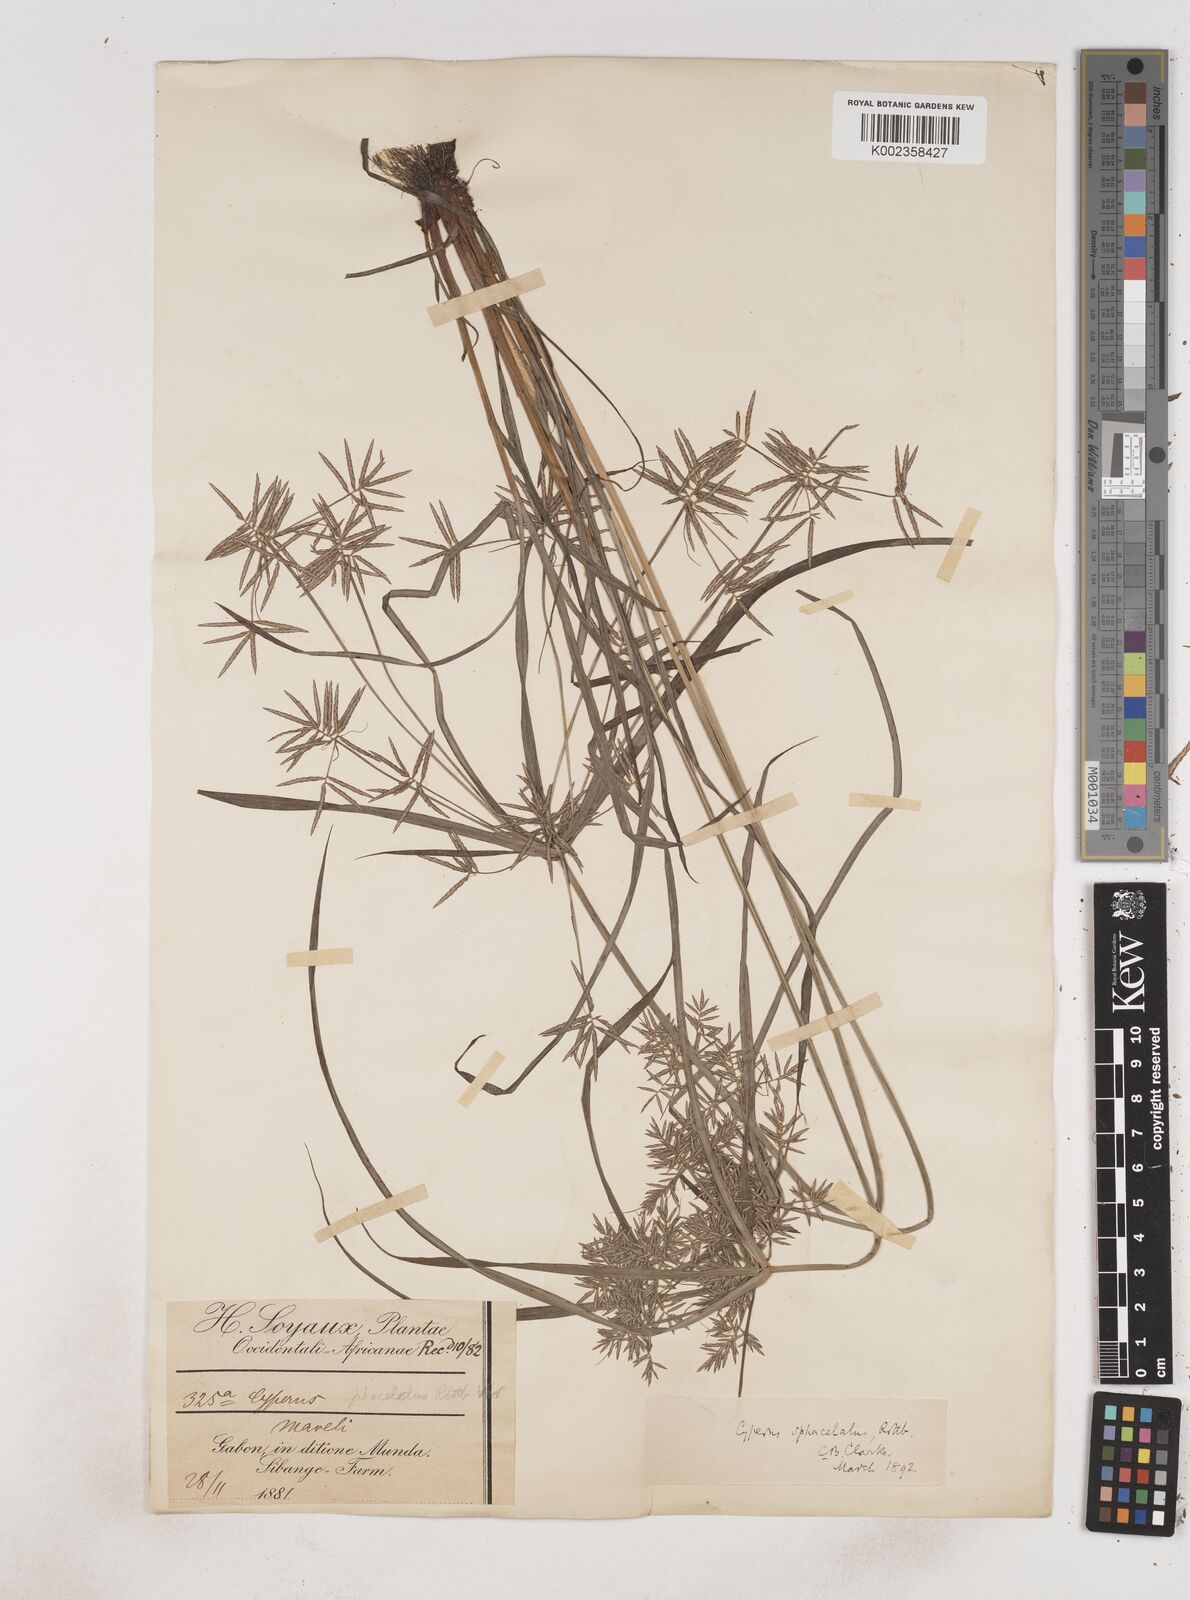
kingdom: Plantae
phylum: Tracheophyta
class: Liliopsida
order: Poales
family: Cyperaceae
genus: Cyperus
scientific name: Cyperus sphacelatus
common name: Roadside flatsedge
